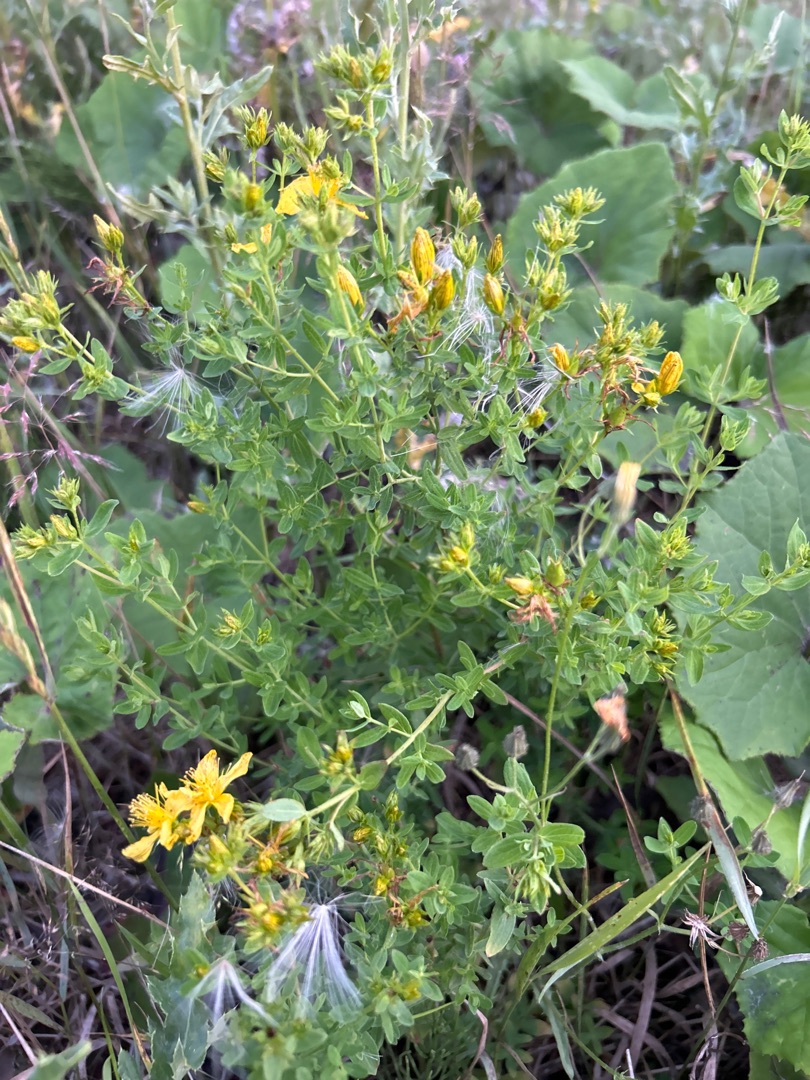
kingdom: Plantae
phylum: Tracheophyta
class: Magnoliopsida
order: Malpighiales
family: Hypericaceae
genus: Hypericum
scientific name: Hypericum perforatum
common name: Prikbladet perikon
